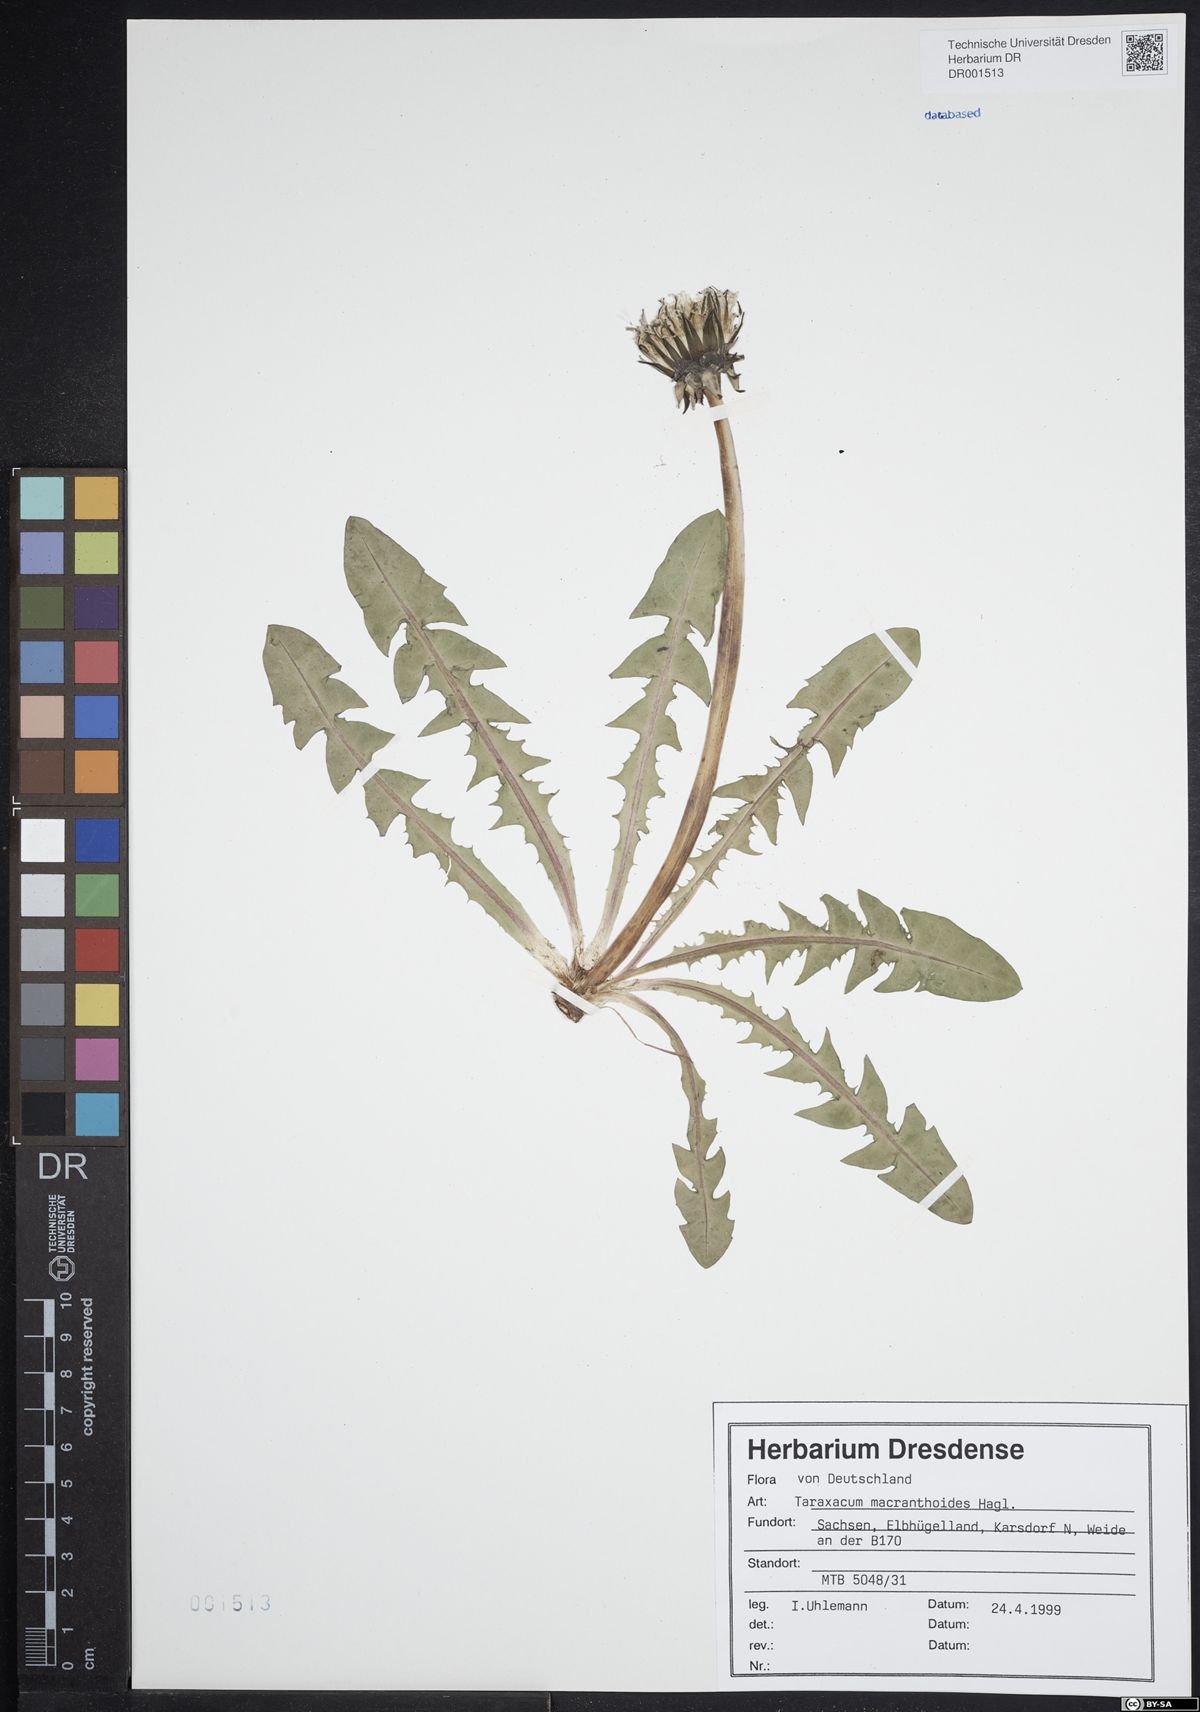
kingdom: Plantae
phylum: Tracheophyta
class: Magnoliopsida
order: Asterales
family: Asteraceae
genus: Taraxacum
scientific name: Taraxacum macranthoides
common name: Large-flowered dandelion
